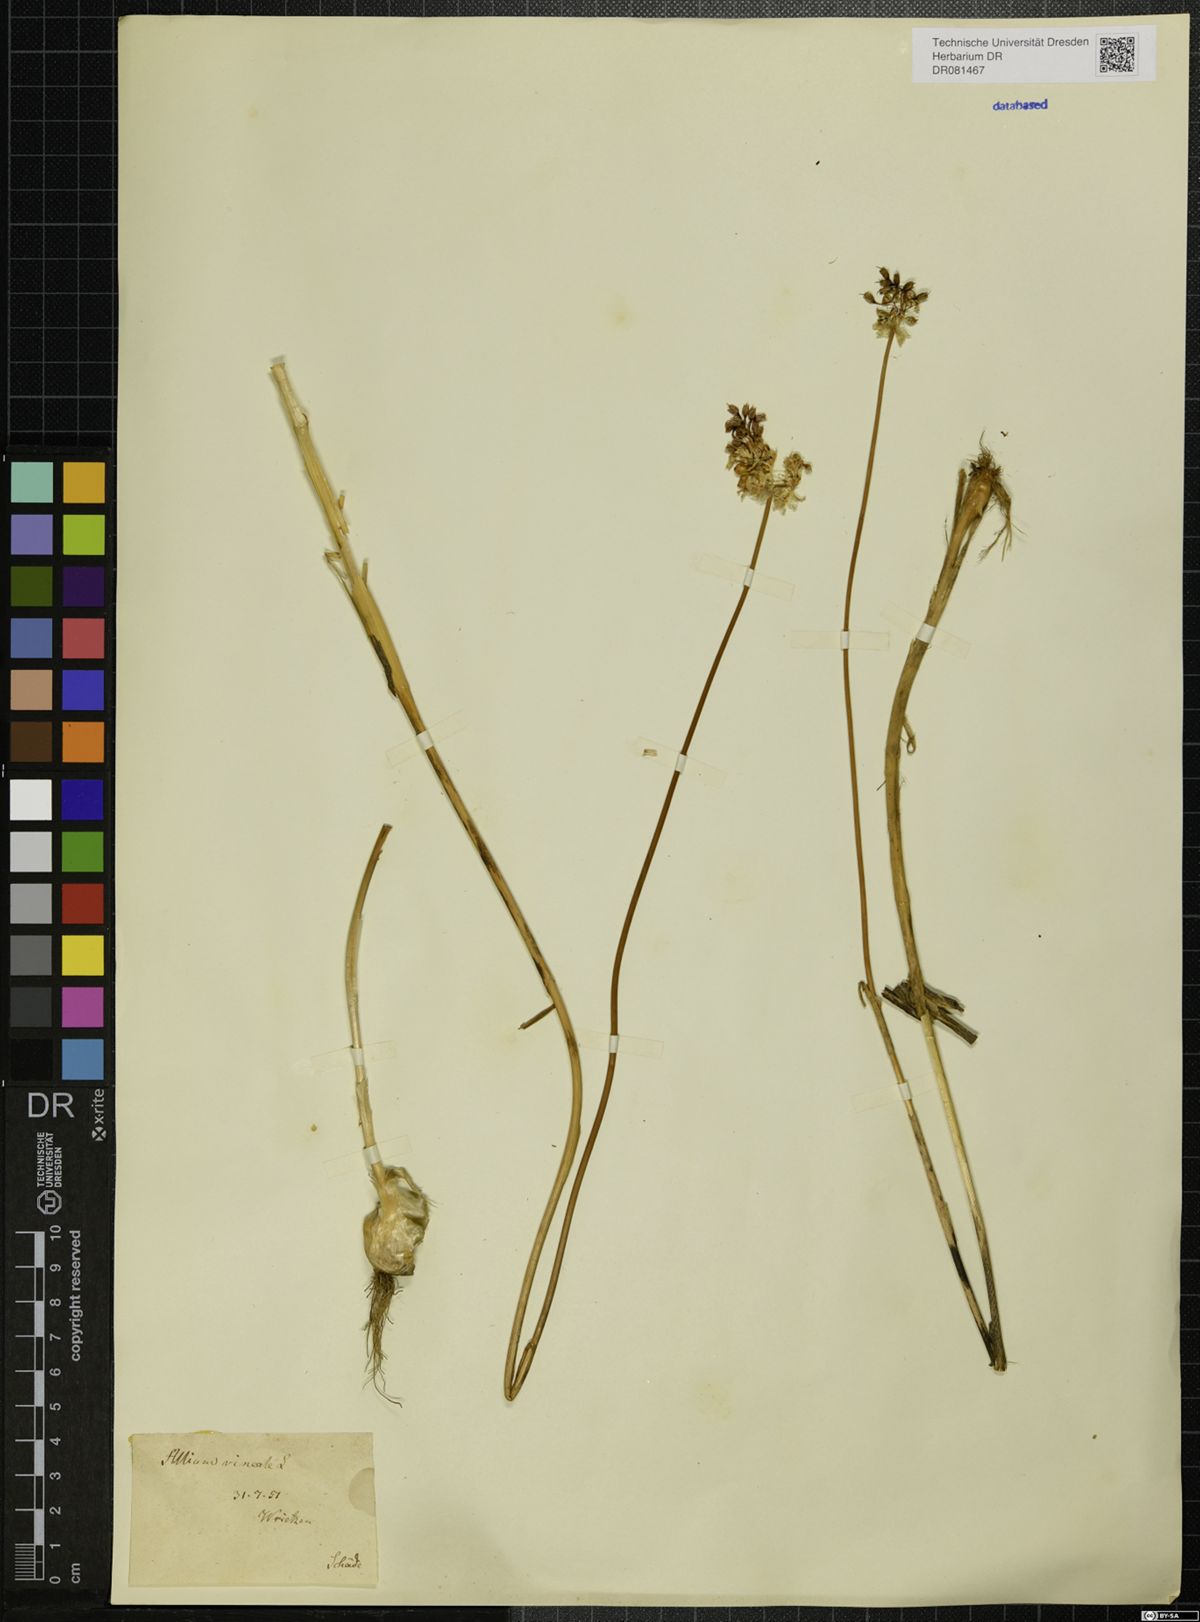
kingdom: Plantae
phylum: Tracheophyta
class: Liliopsida
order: Asparagales
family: Amaryllidaceae
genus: Allium
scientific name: Allium vineale
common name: Crow garlic
